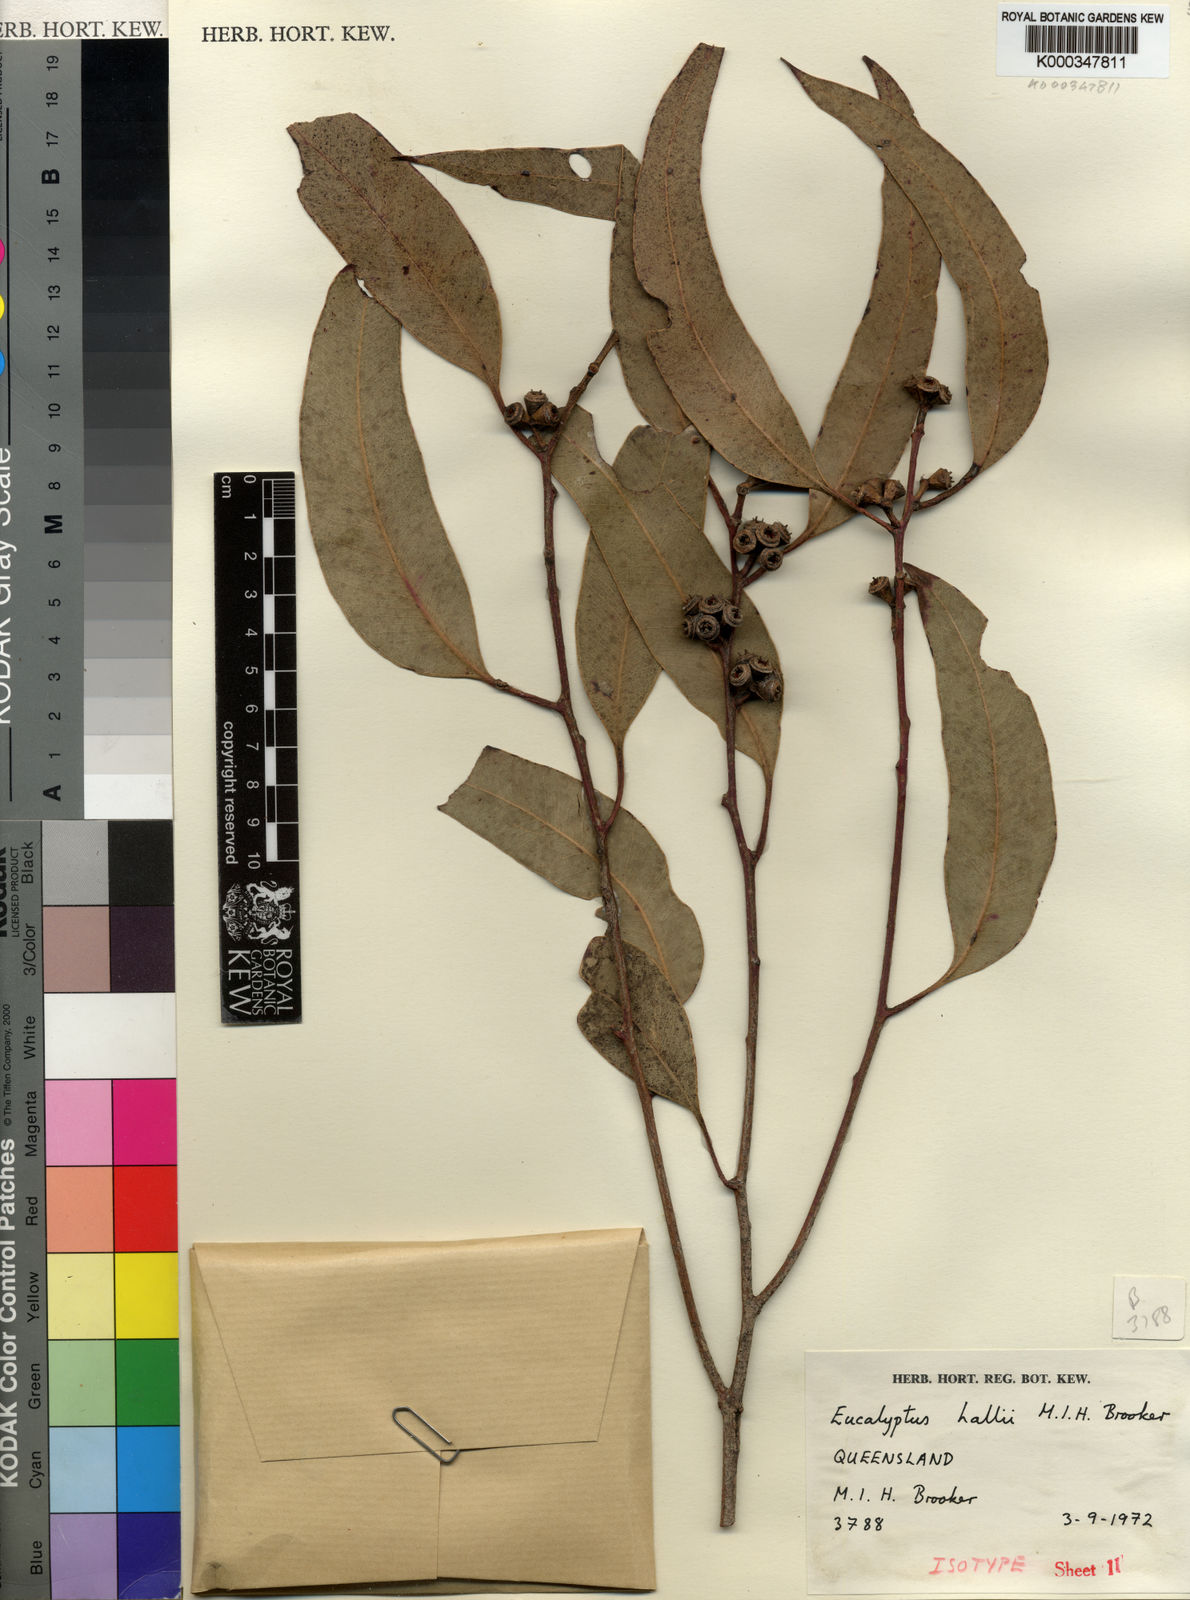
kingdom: Plantae
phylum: Tracheophyta
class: Magnoliopsida
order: Myrtales
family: Myrtaceae
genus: Eucalyptus
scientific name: Eucalyptus hallii
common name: Goodwood gum
